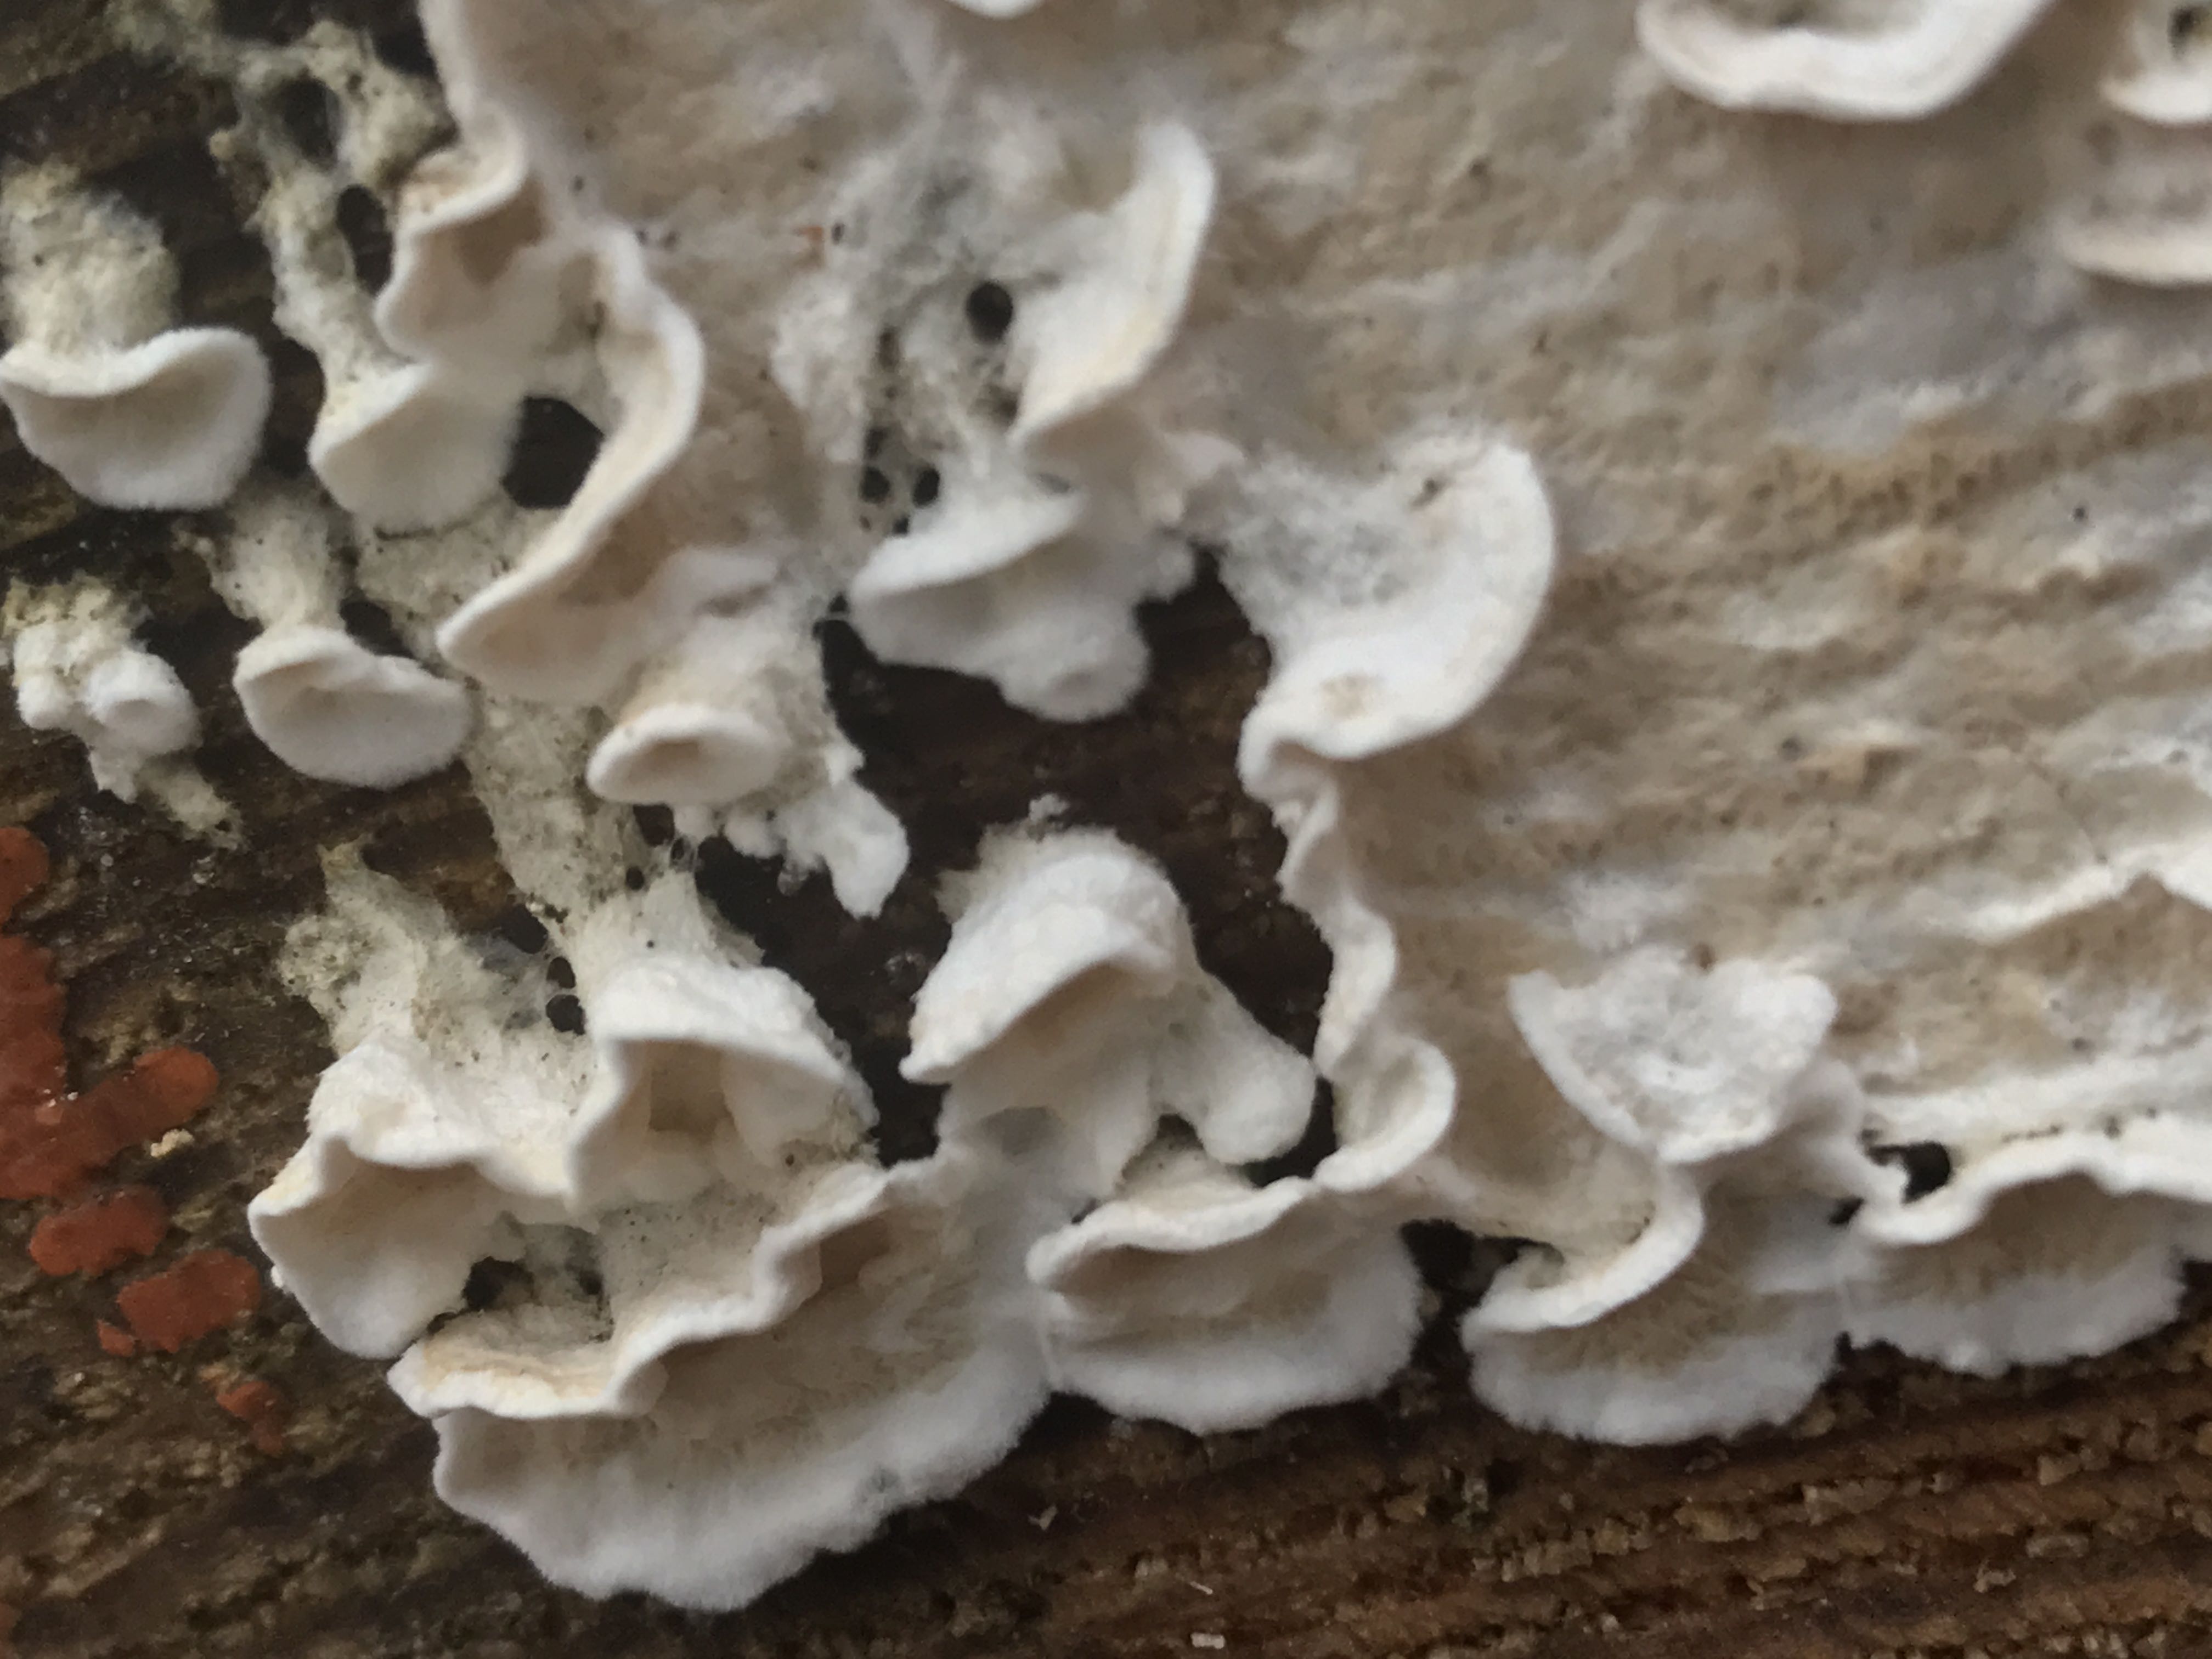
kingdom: Fungi
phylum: Basidiomycota
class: Agaricomycetes
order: Polyporales
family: Irpicaceae
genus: Byssomerulius
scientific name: Byssomerulius corium
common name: læder-åresvamp
